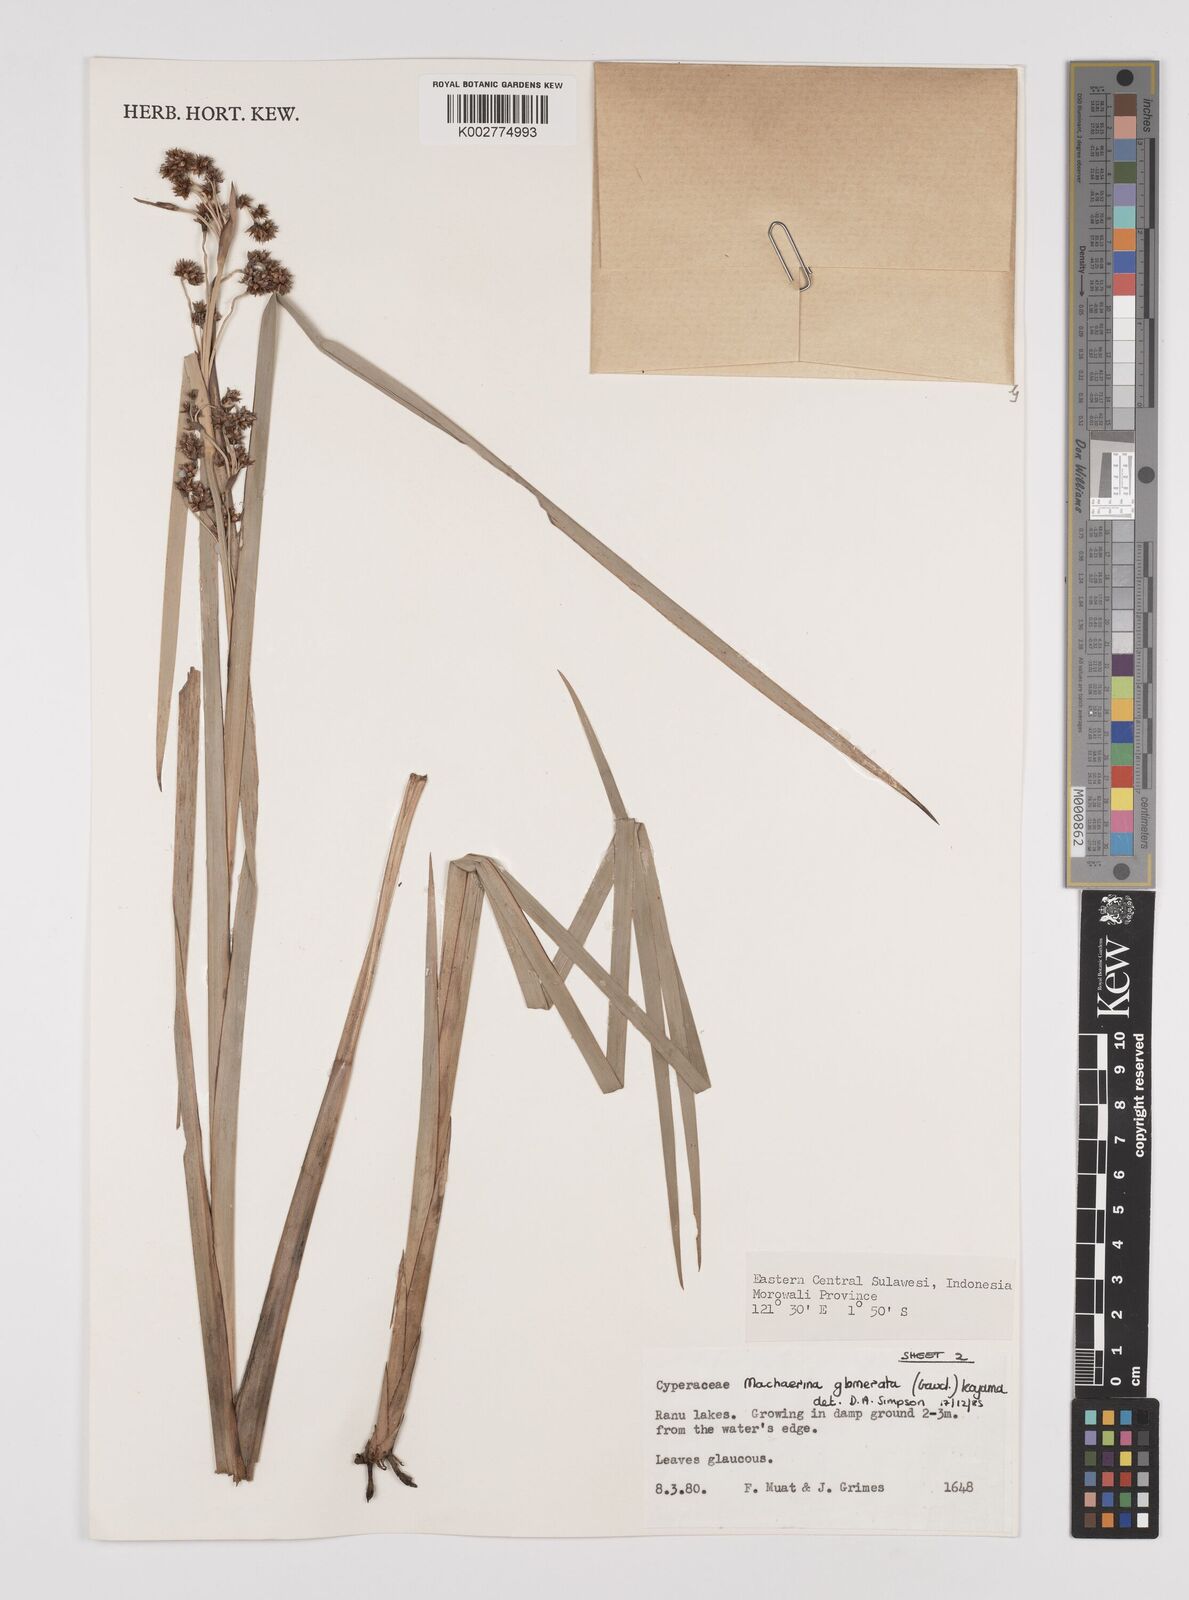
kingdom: Plantae
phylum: Tracheophyta
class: Liliopsida
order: Poales
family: Cyperaceae
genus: Machaerina
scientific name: Machaerina glomerata
